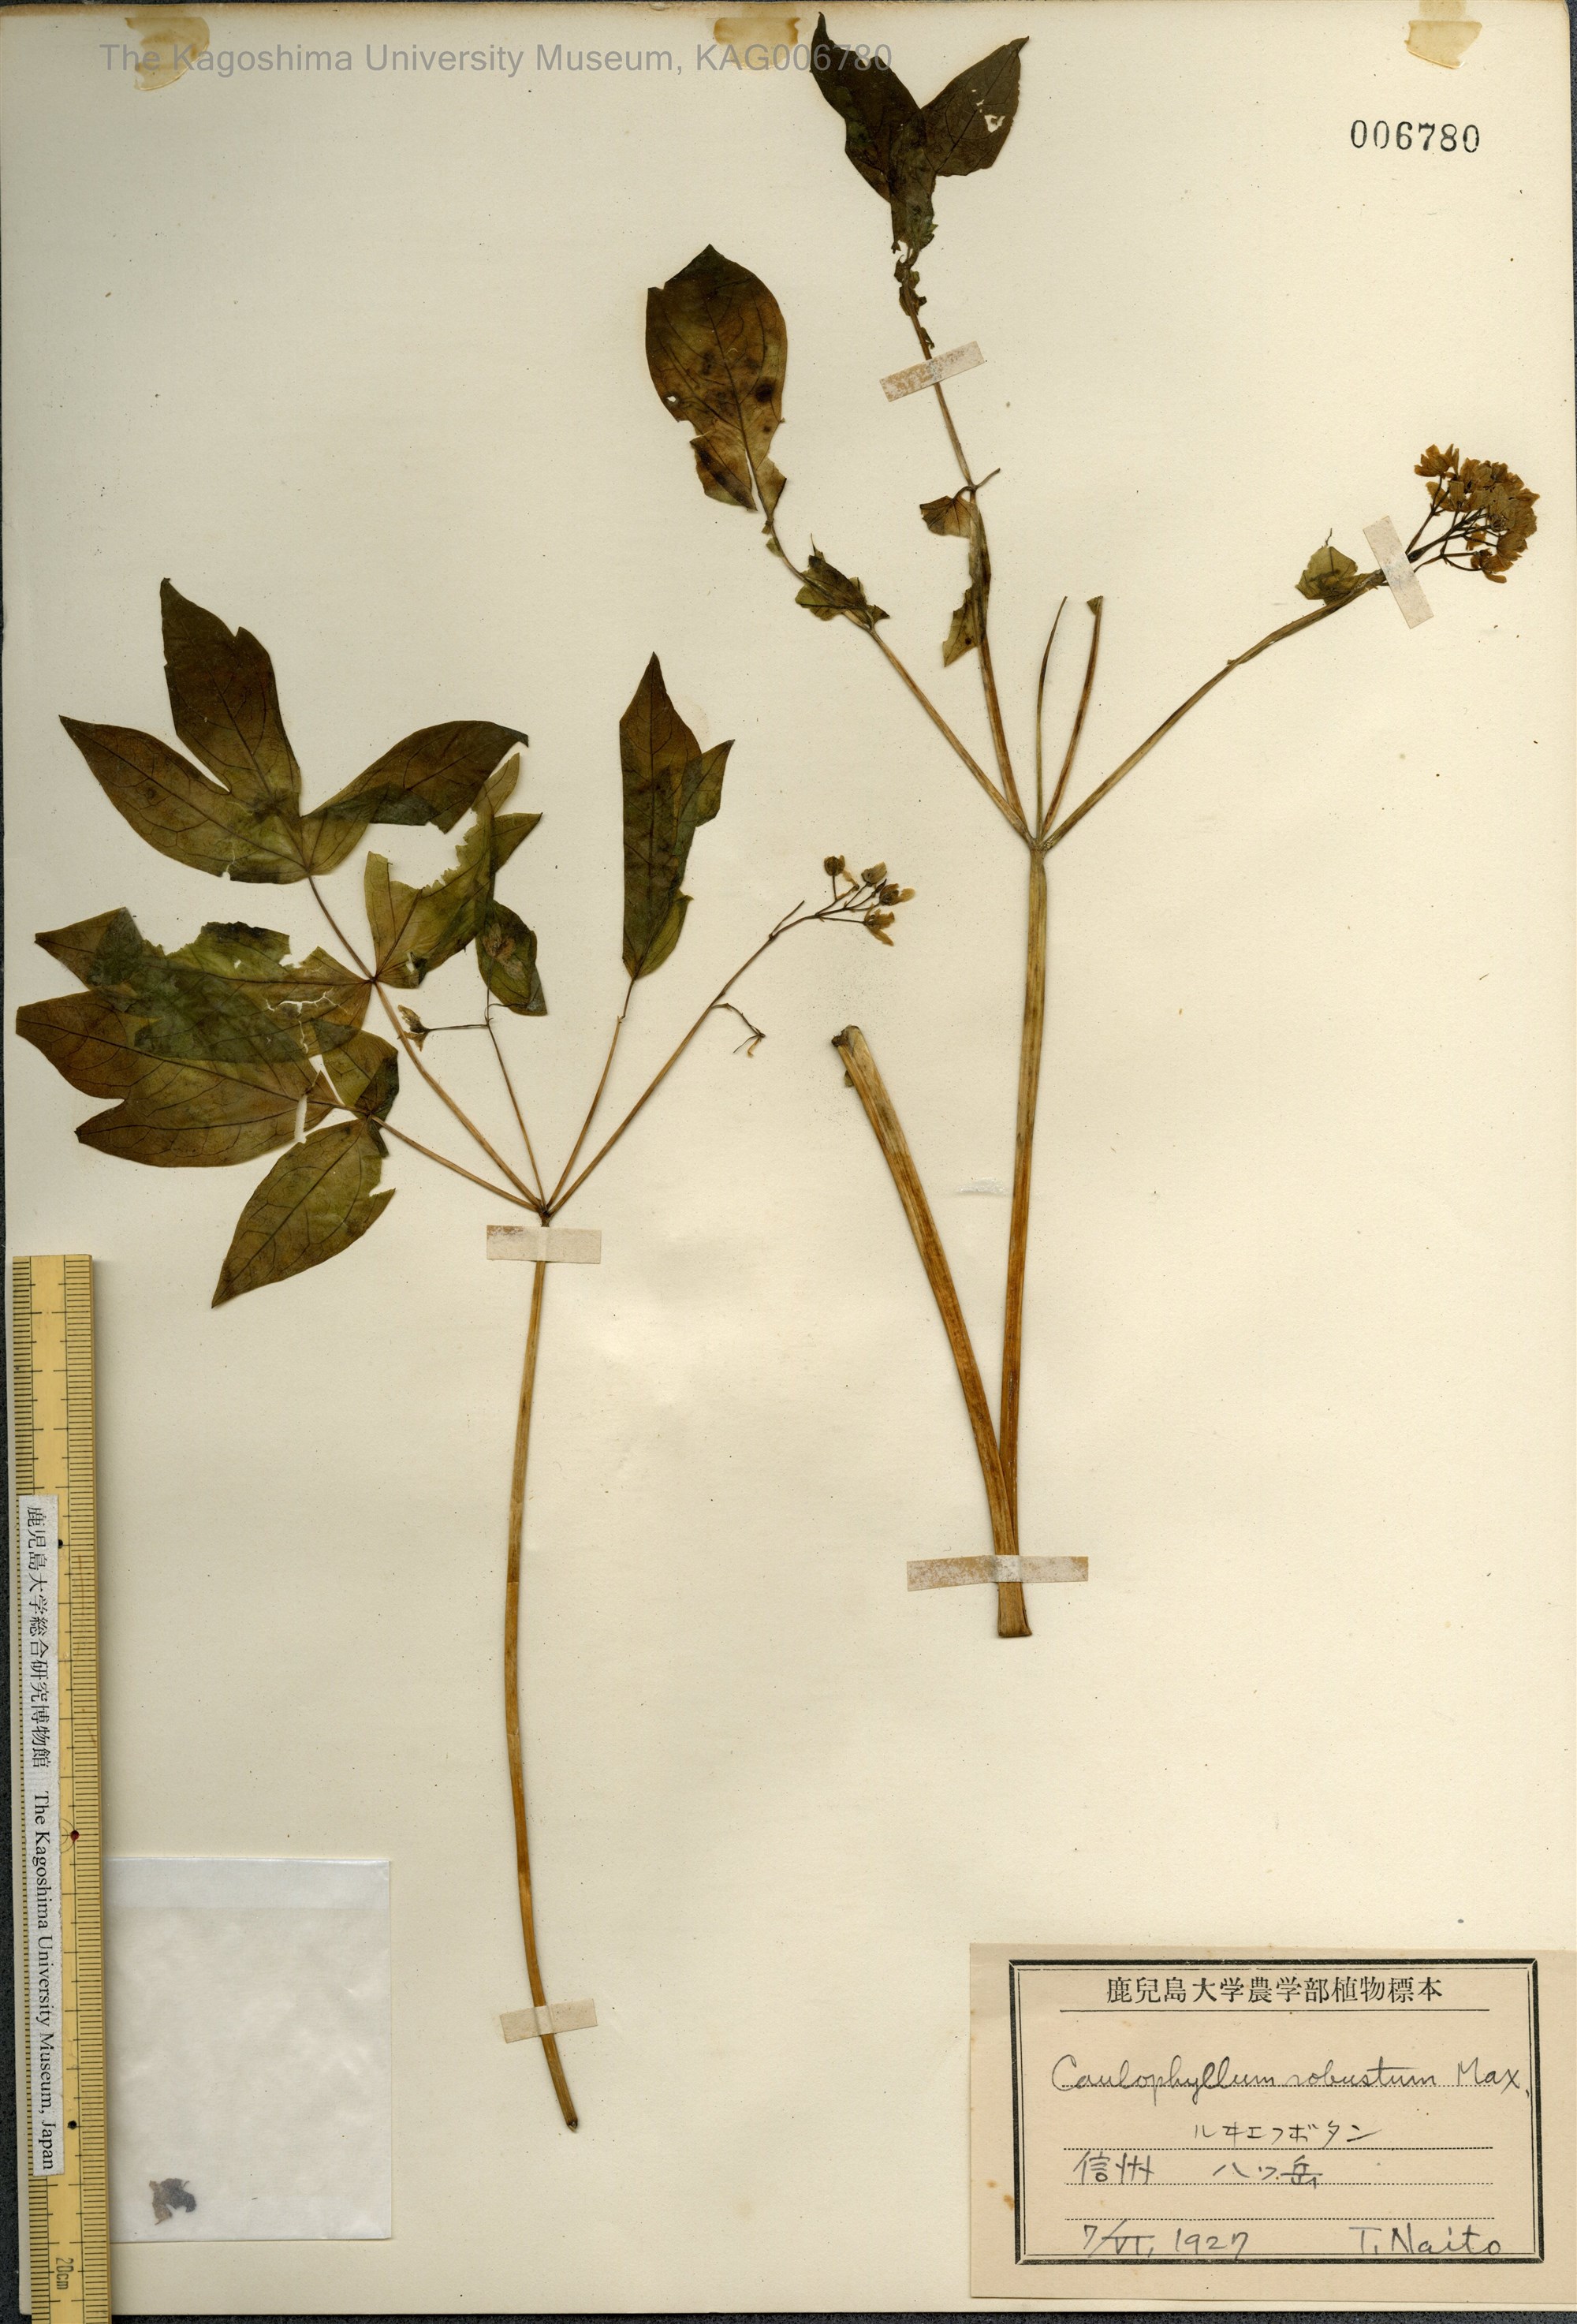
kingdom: Plantae
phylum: Tracheophyta
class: Magnoliopsida
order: Ranunculales
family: Berberidaceae
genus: Caulophyllum
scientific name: Caulophyllum robustum
